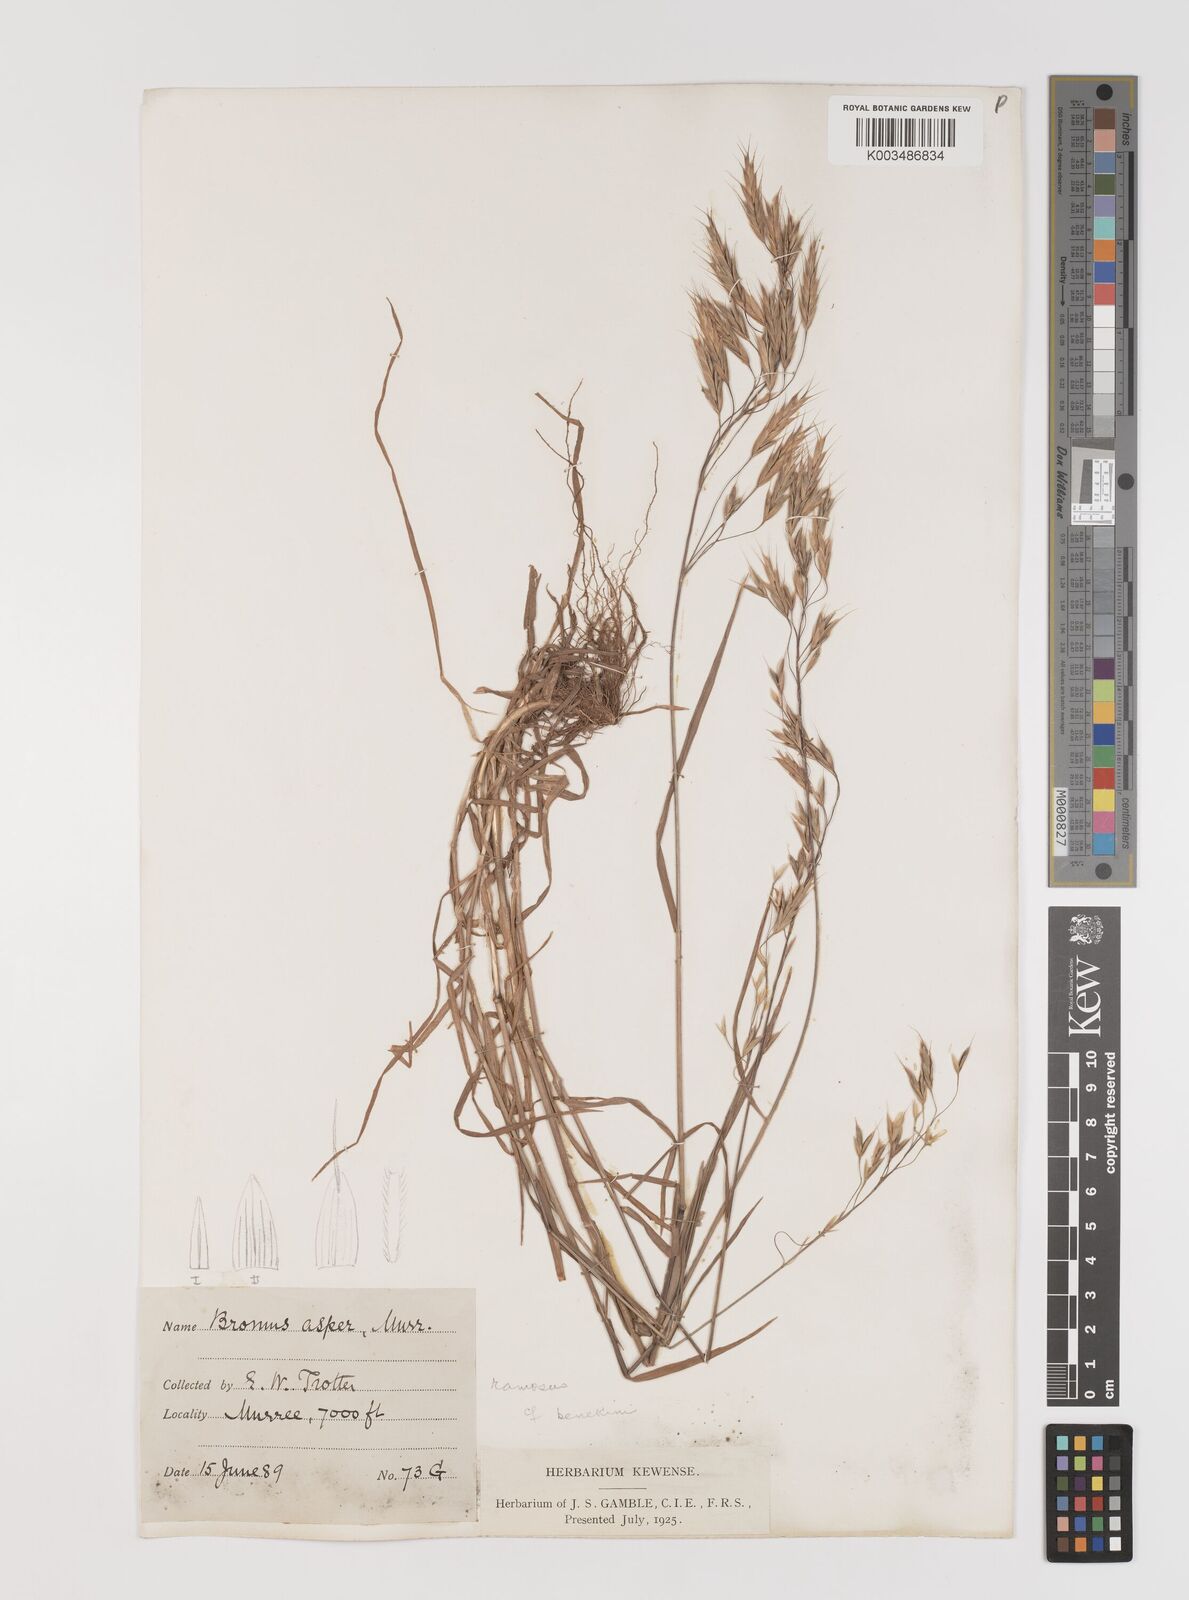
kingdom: Plantae
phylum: Tracheophyta
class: Liliopsida
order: Poales
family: Poaceae
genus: Bromus
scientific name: Bromus
